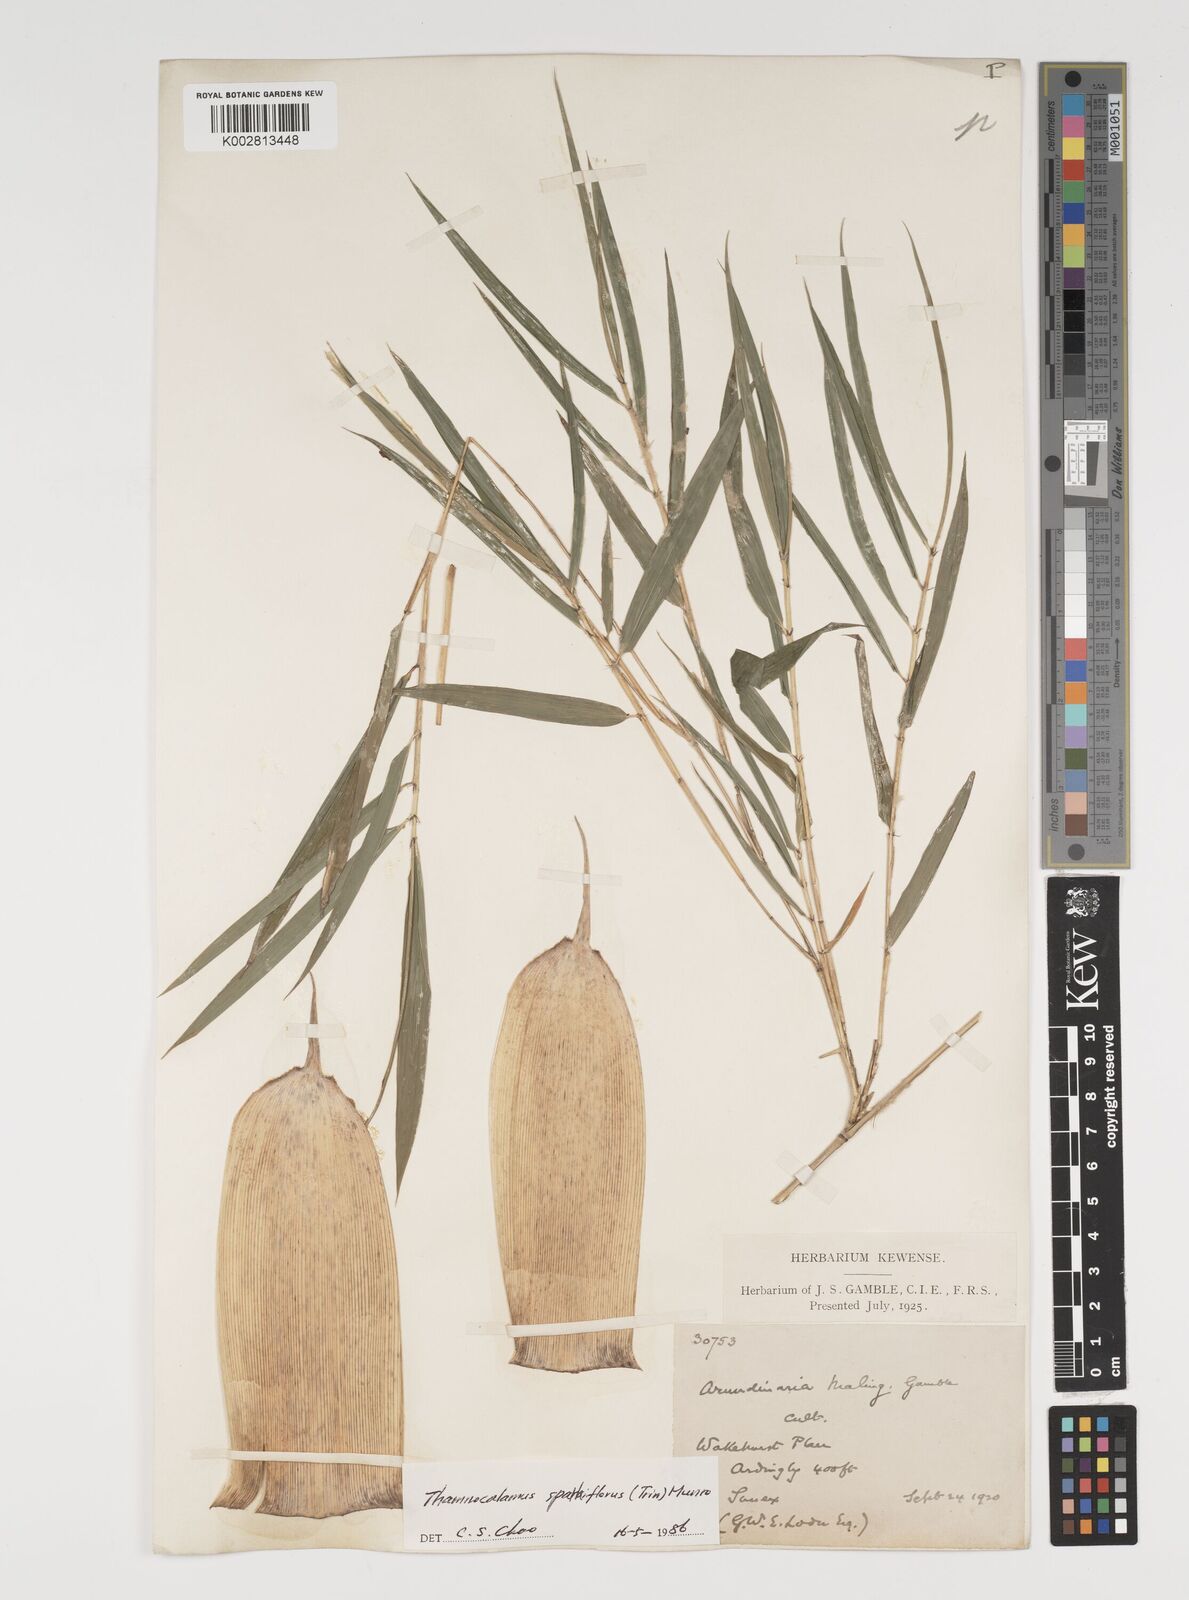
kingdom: Plantae
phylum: Tracheophyta
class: Liliopsida
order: Poales
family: Poaceae
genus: Thamnocalamus
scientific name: Thamnocalamus spathiflorus
